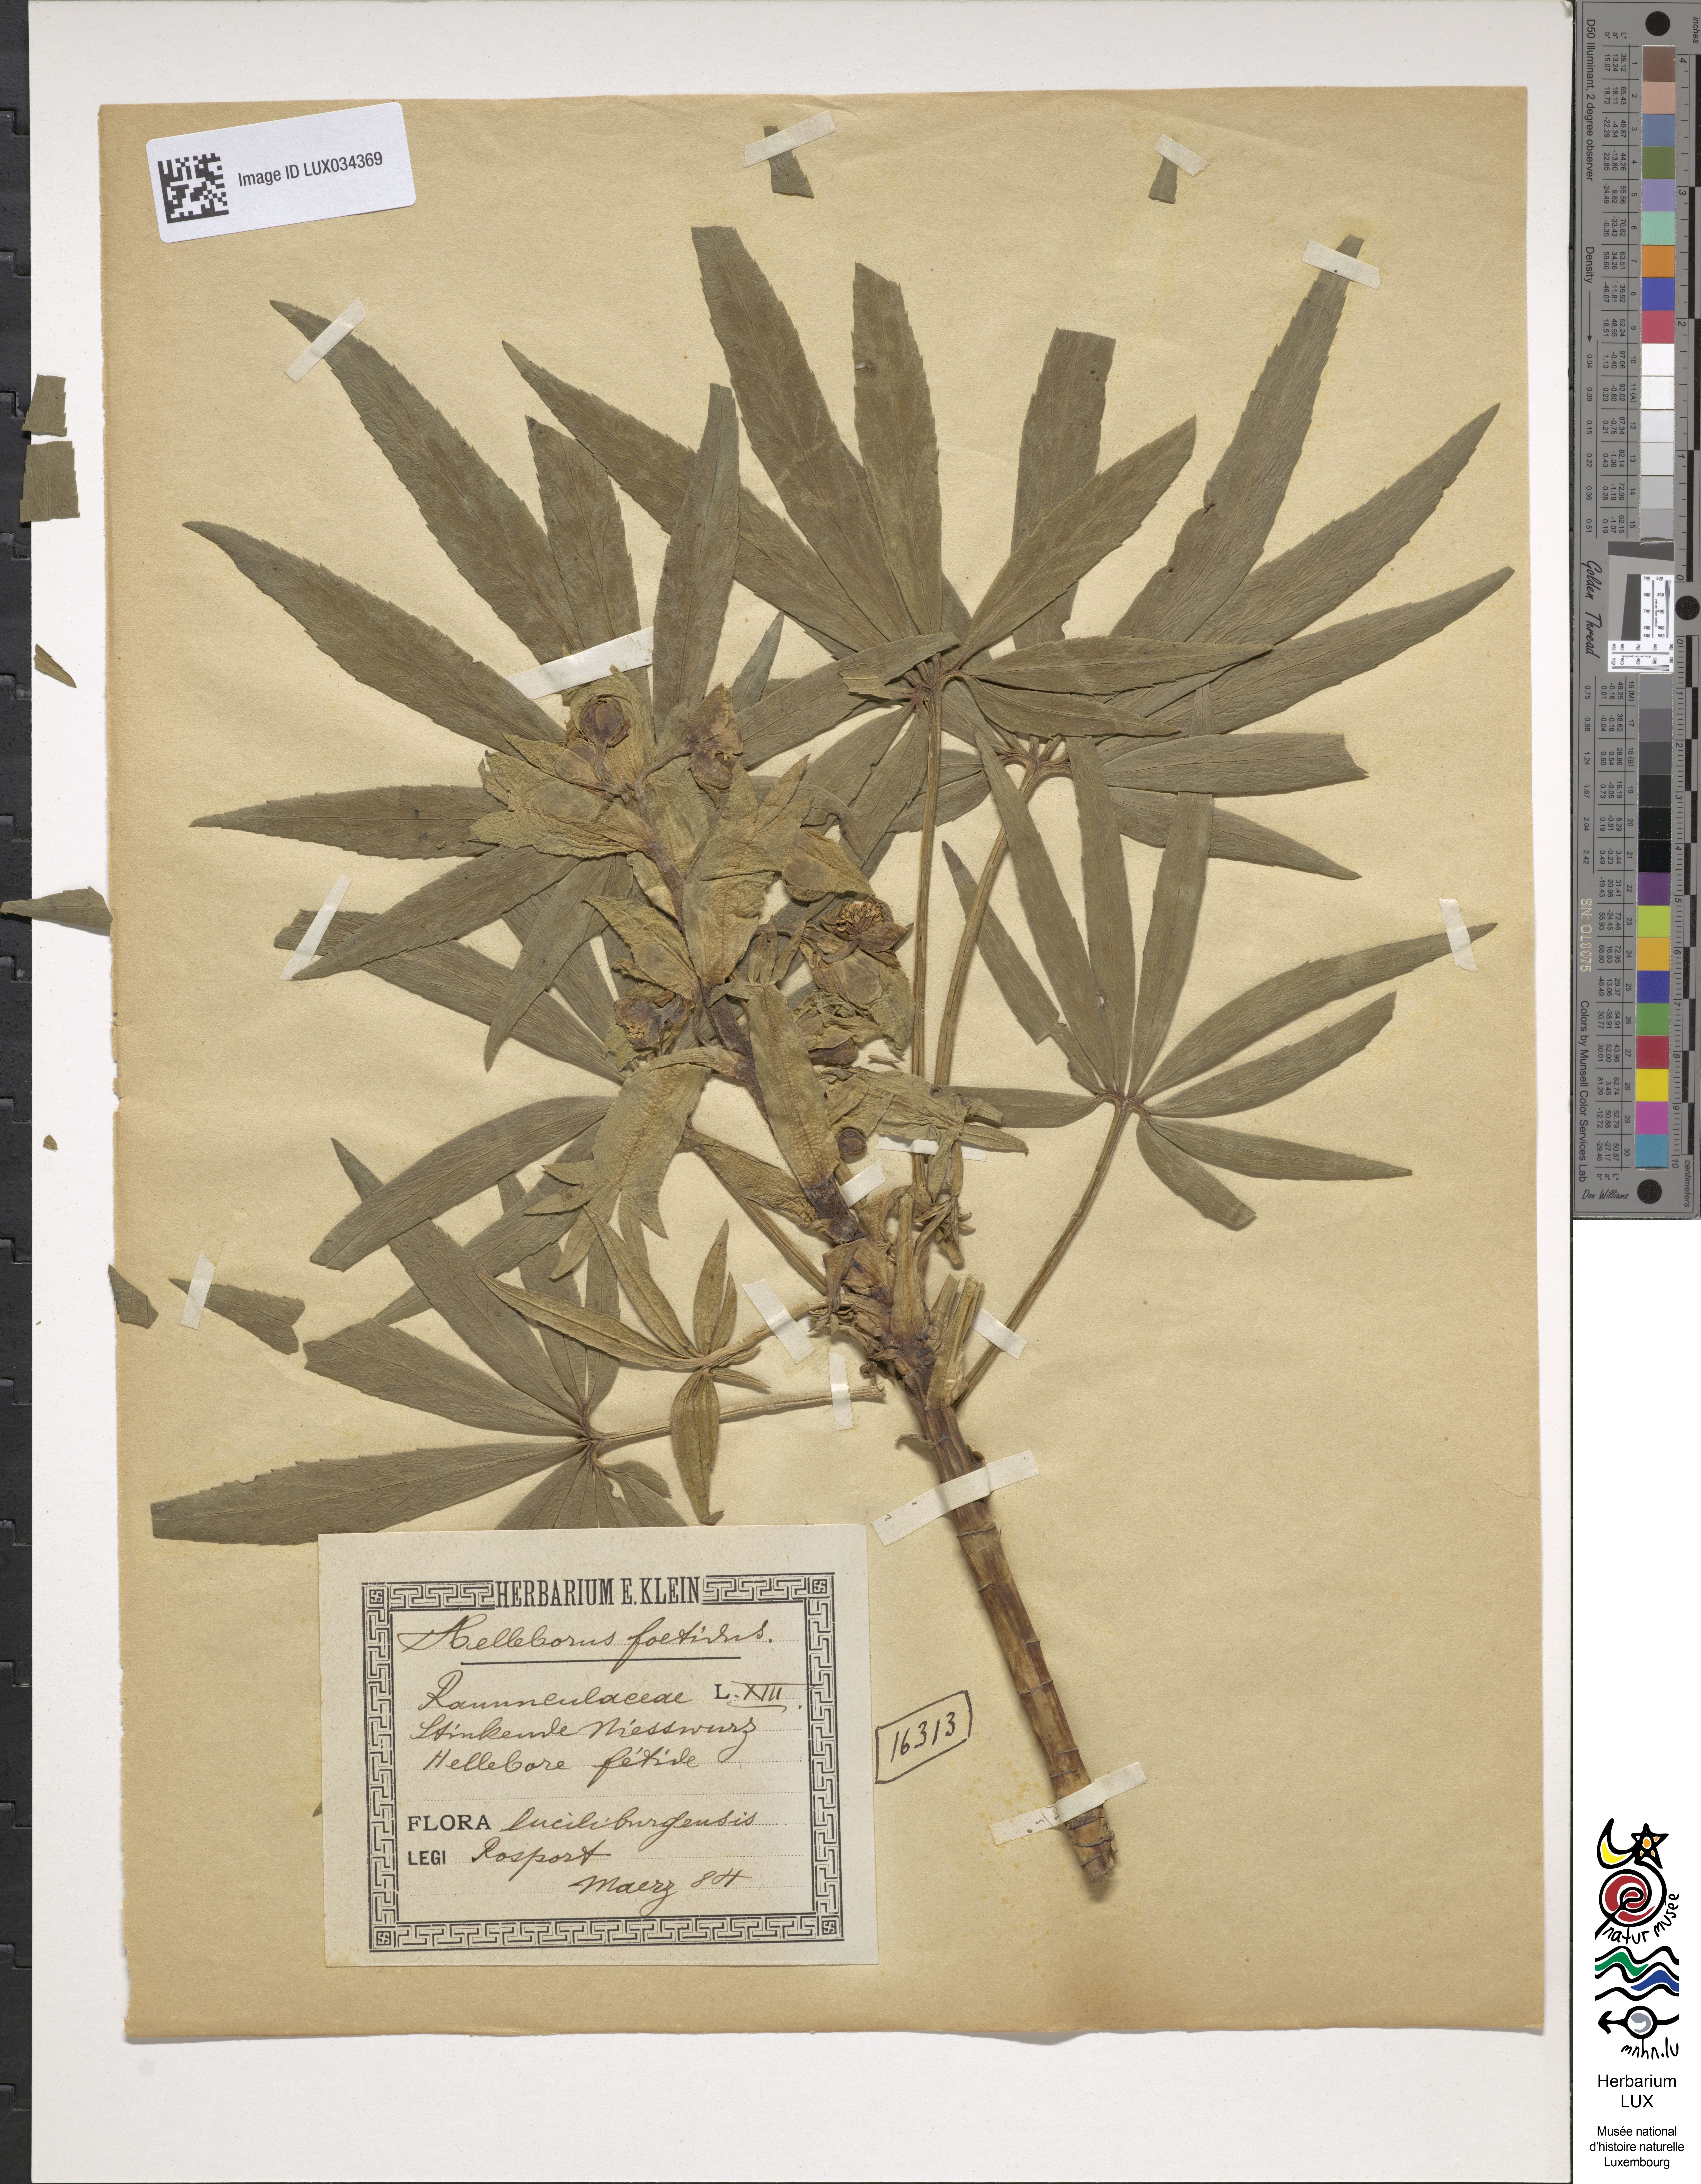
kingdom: Plantae
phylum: Tracheophyta
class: Magnoliopsida
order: Ranunculales
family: Ranunculaceae
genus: Helleborus
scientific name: Helleborus foetidus
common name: Stinking hellebore
